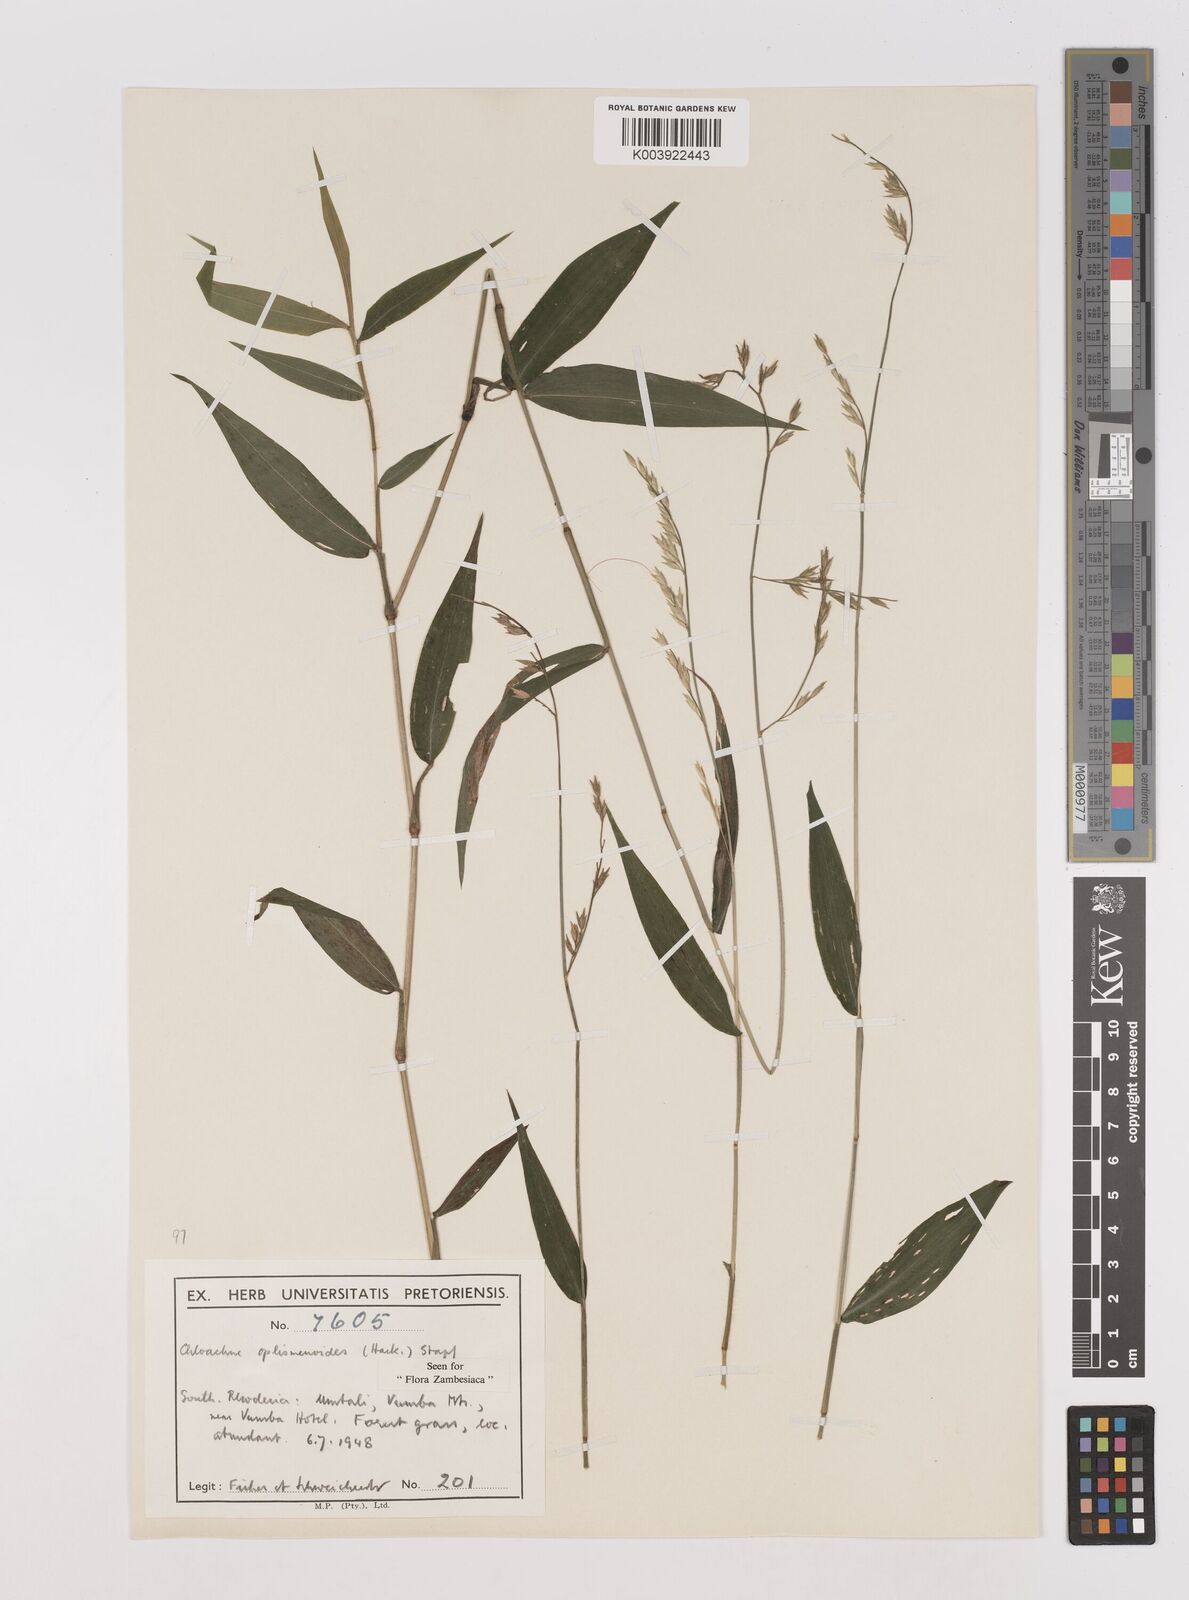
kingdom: Plantae
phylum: Tracheophyta
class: Liliopsida
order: Poales
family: Poaceae
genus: Poecilostachys
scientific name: Poecilostachys oplismenoides
